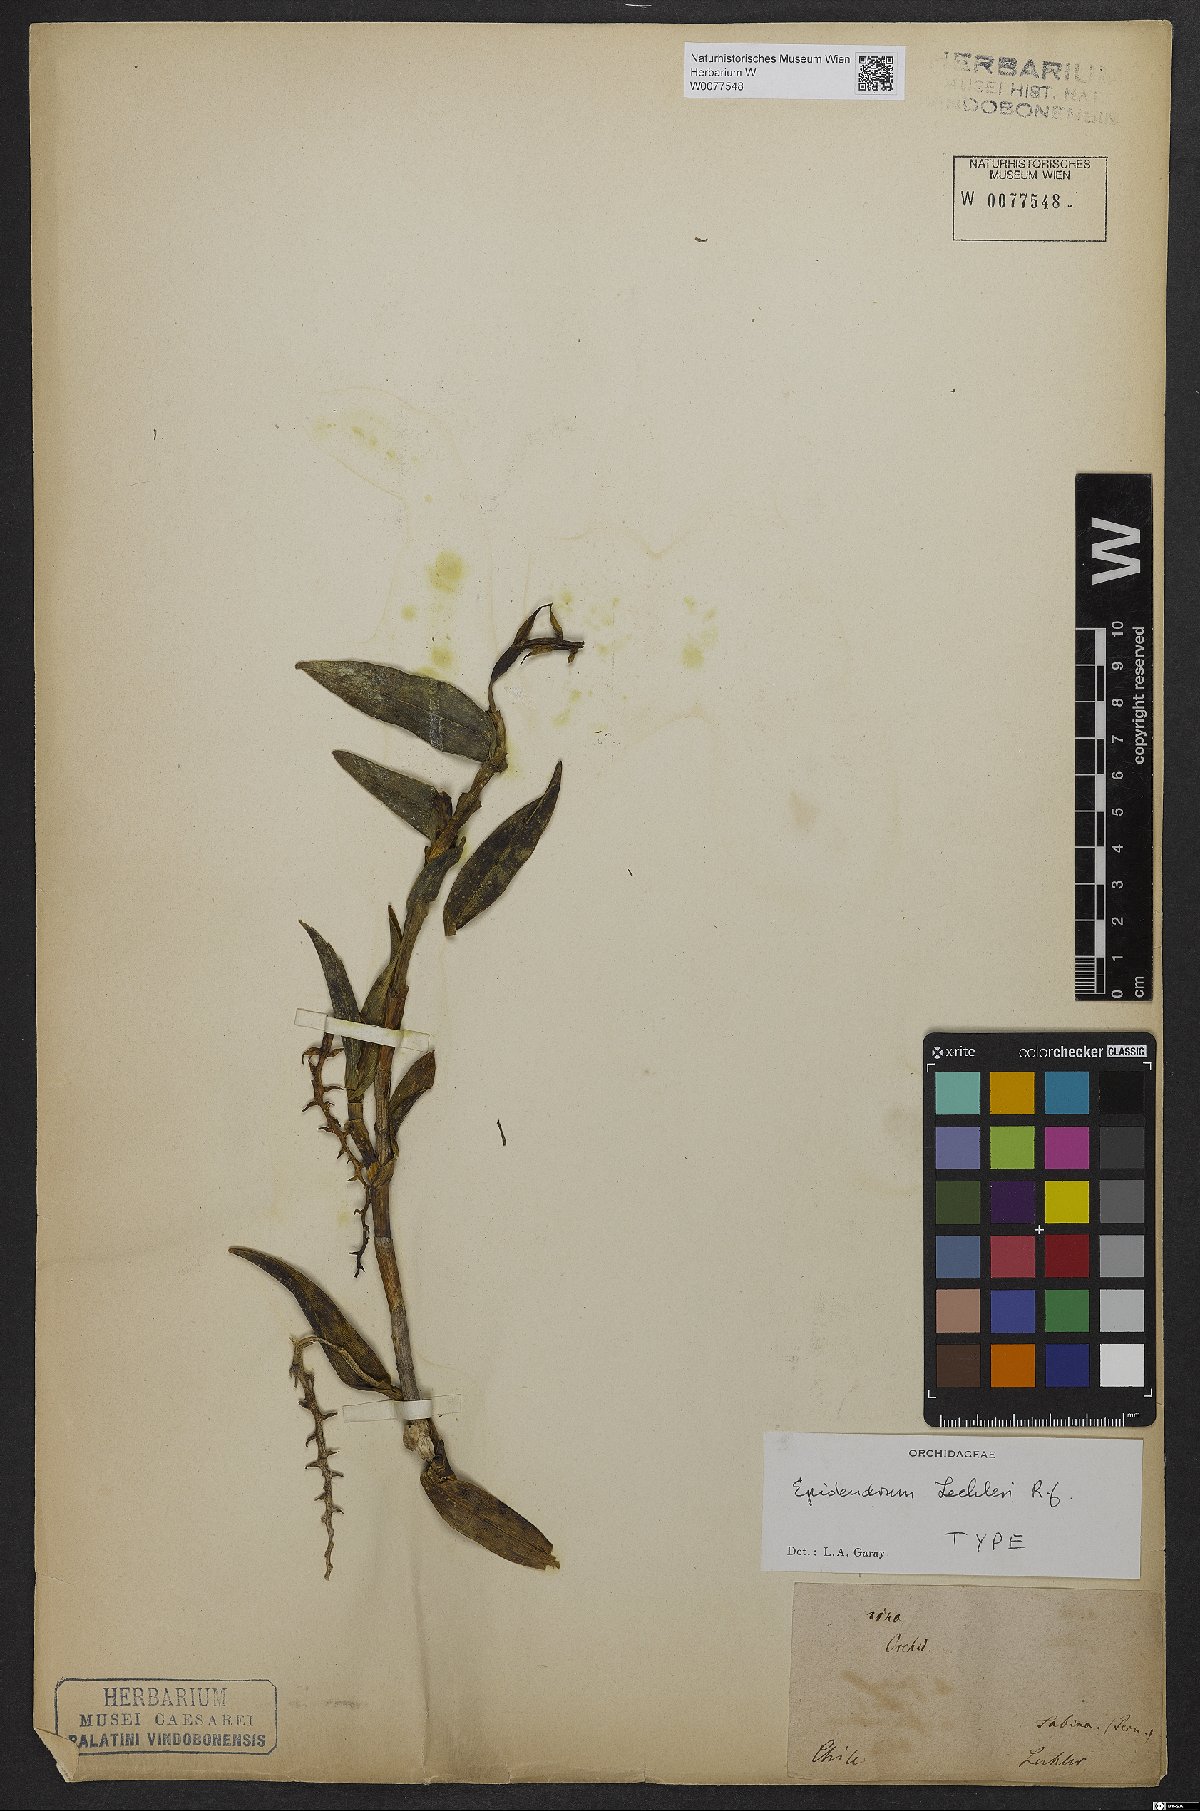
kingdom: Plantae
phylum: Tracheophyta
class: Liliopsida
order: Asparagales
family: Orchidaceae
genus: Epidendrum
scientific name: Epidendrum lechleri
